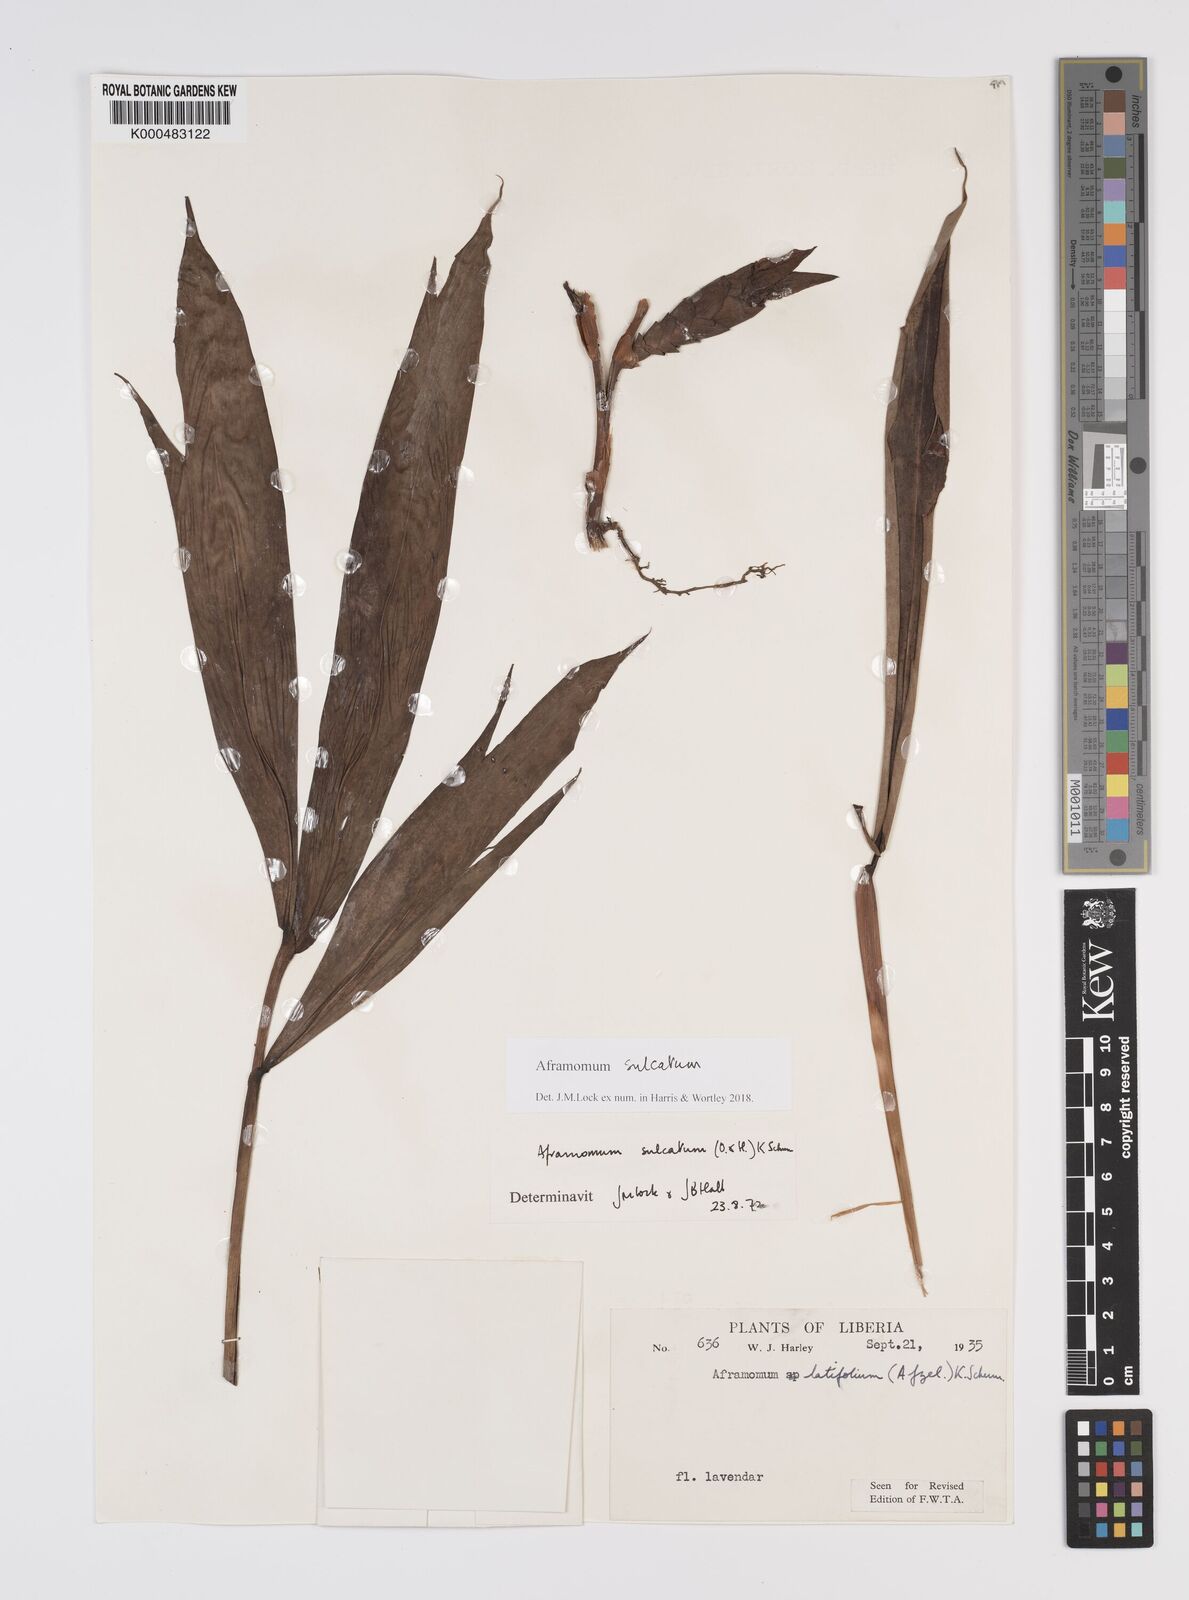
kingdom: Plantae
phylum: Tracheophyta
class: Liliopsida
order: Zingiberales
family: Zingiberaceae
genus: Aframomum
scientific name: Aframomum sulcatum
